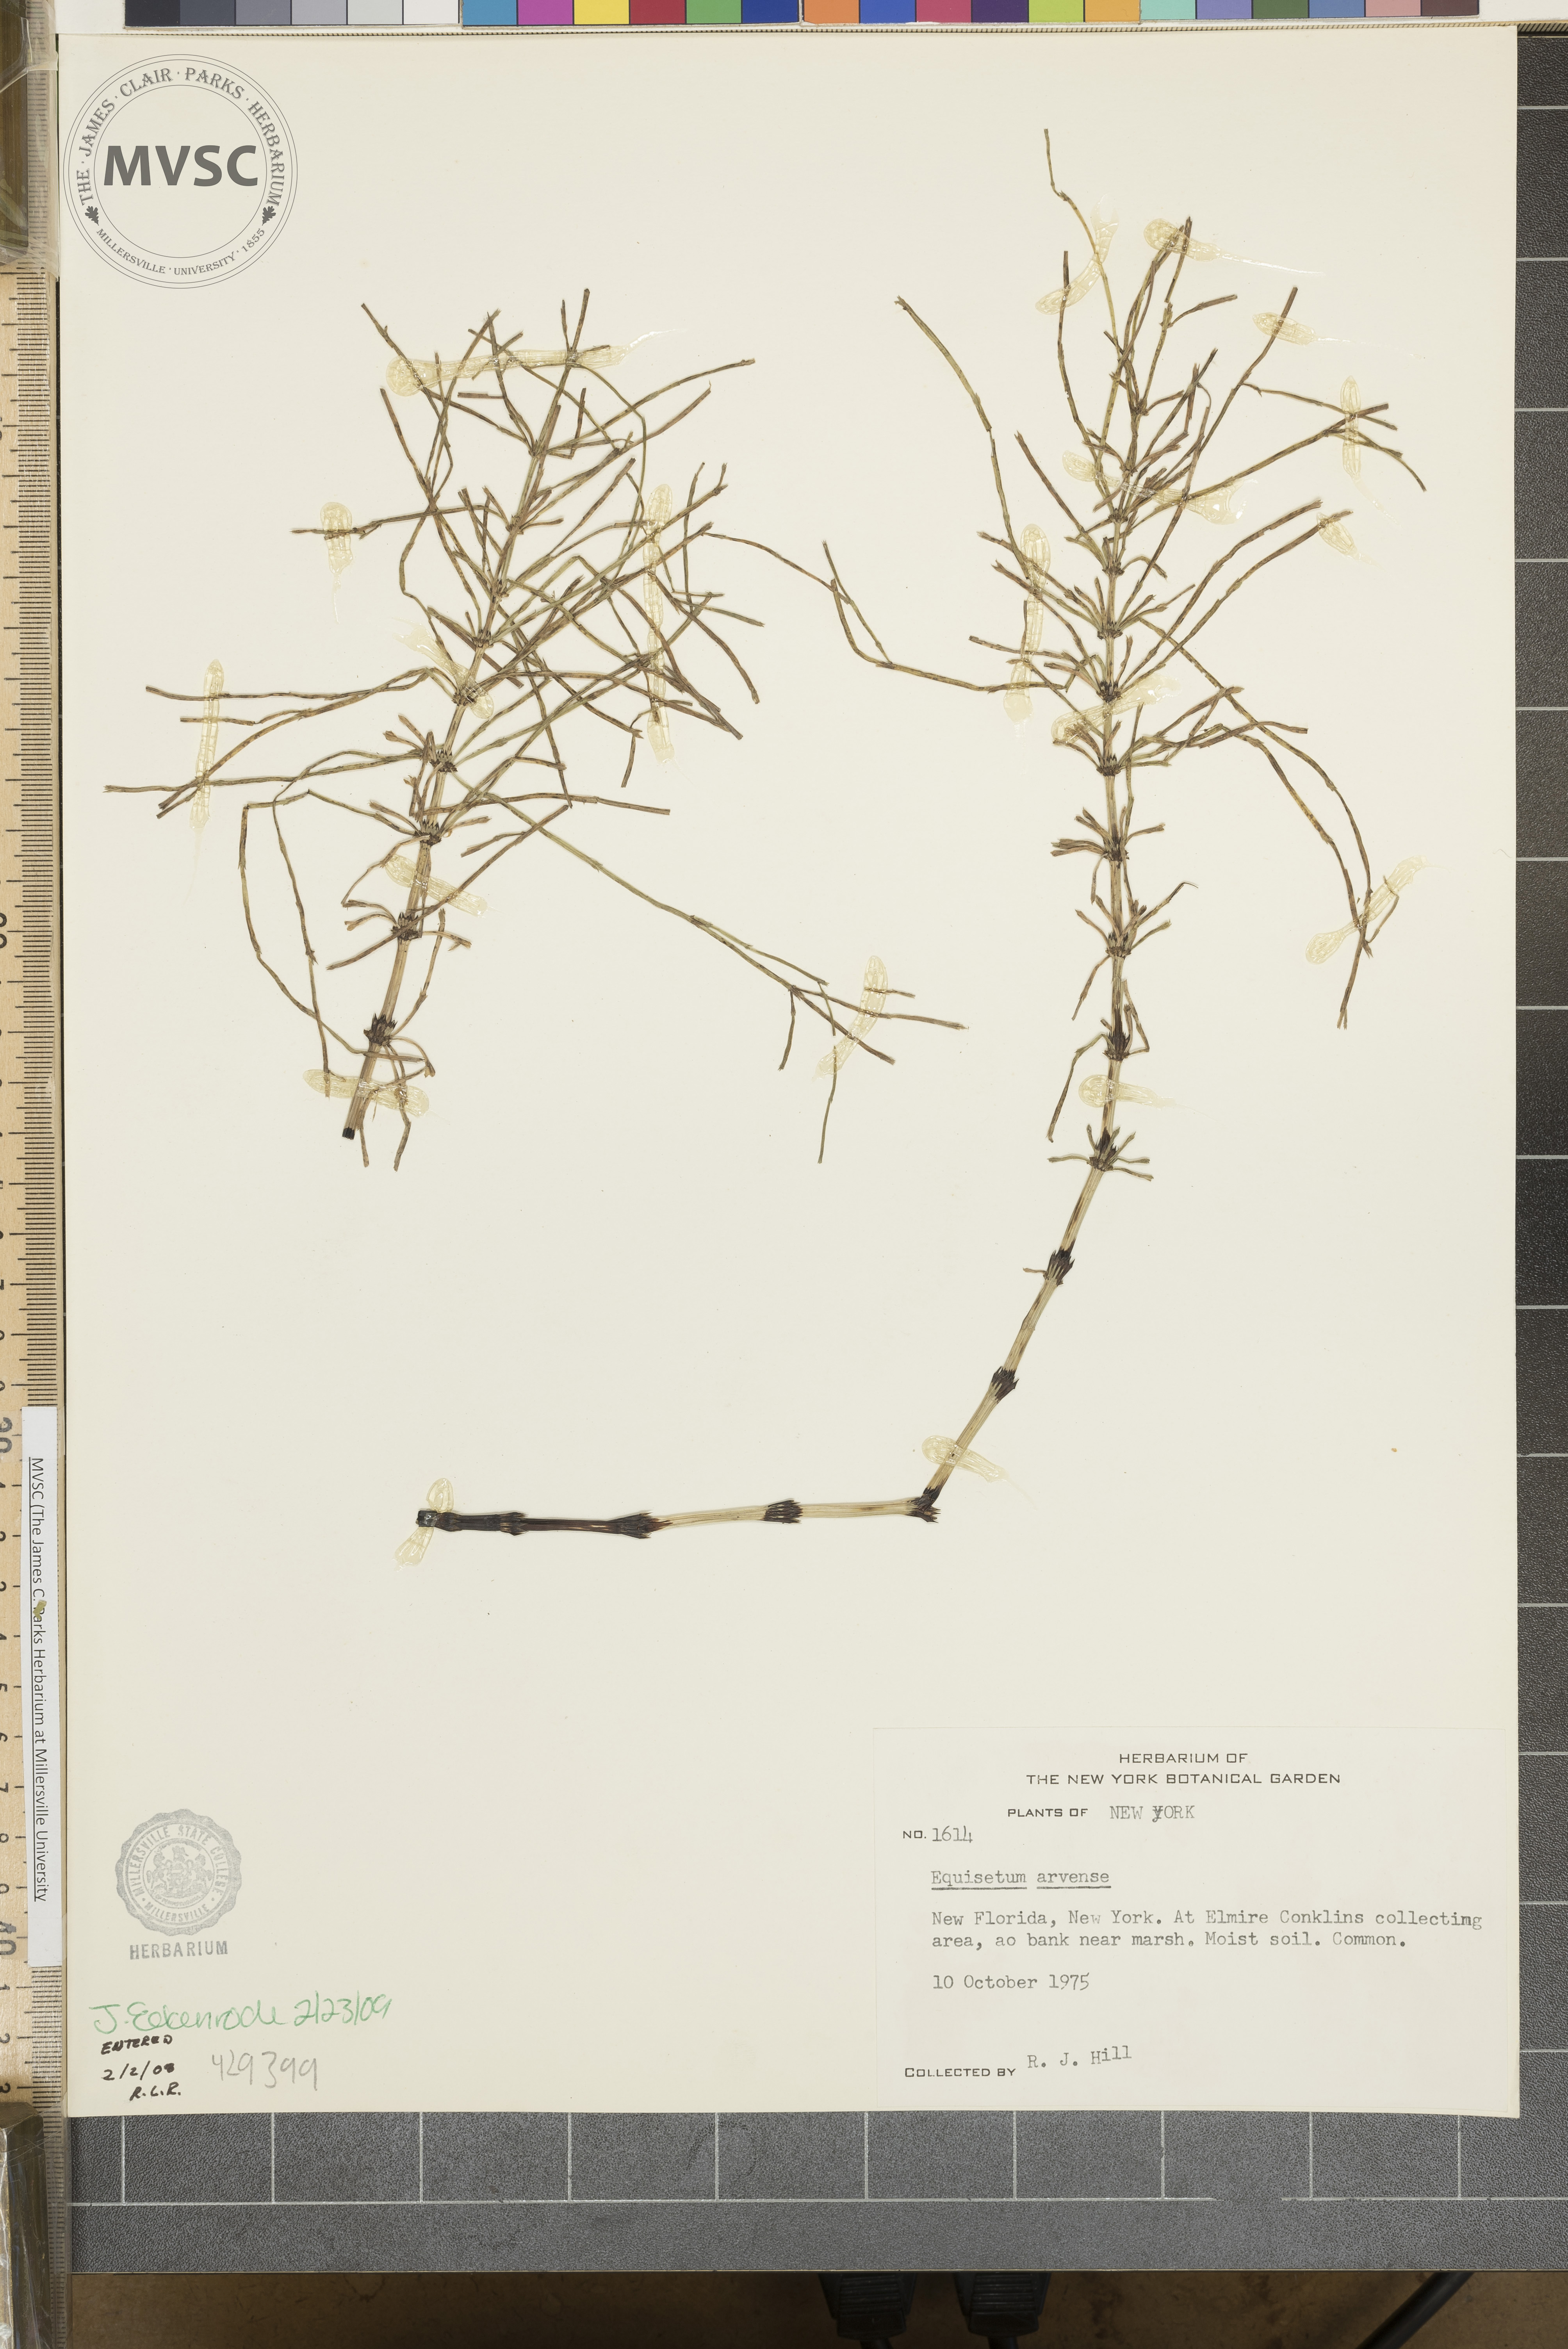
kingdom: Plantae
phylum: Tracheophyta
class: Polypodiopsida
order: Equisetales
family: Equisetaceae
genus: Equisetum
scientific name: Equisetum arvense
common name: Field horsetail
